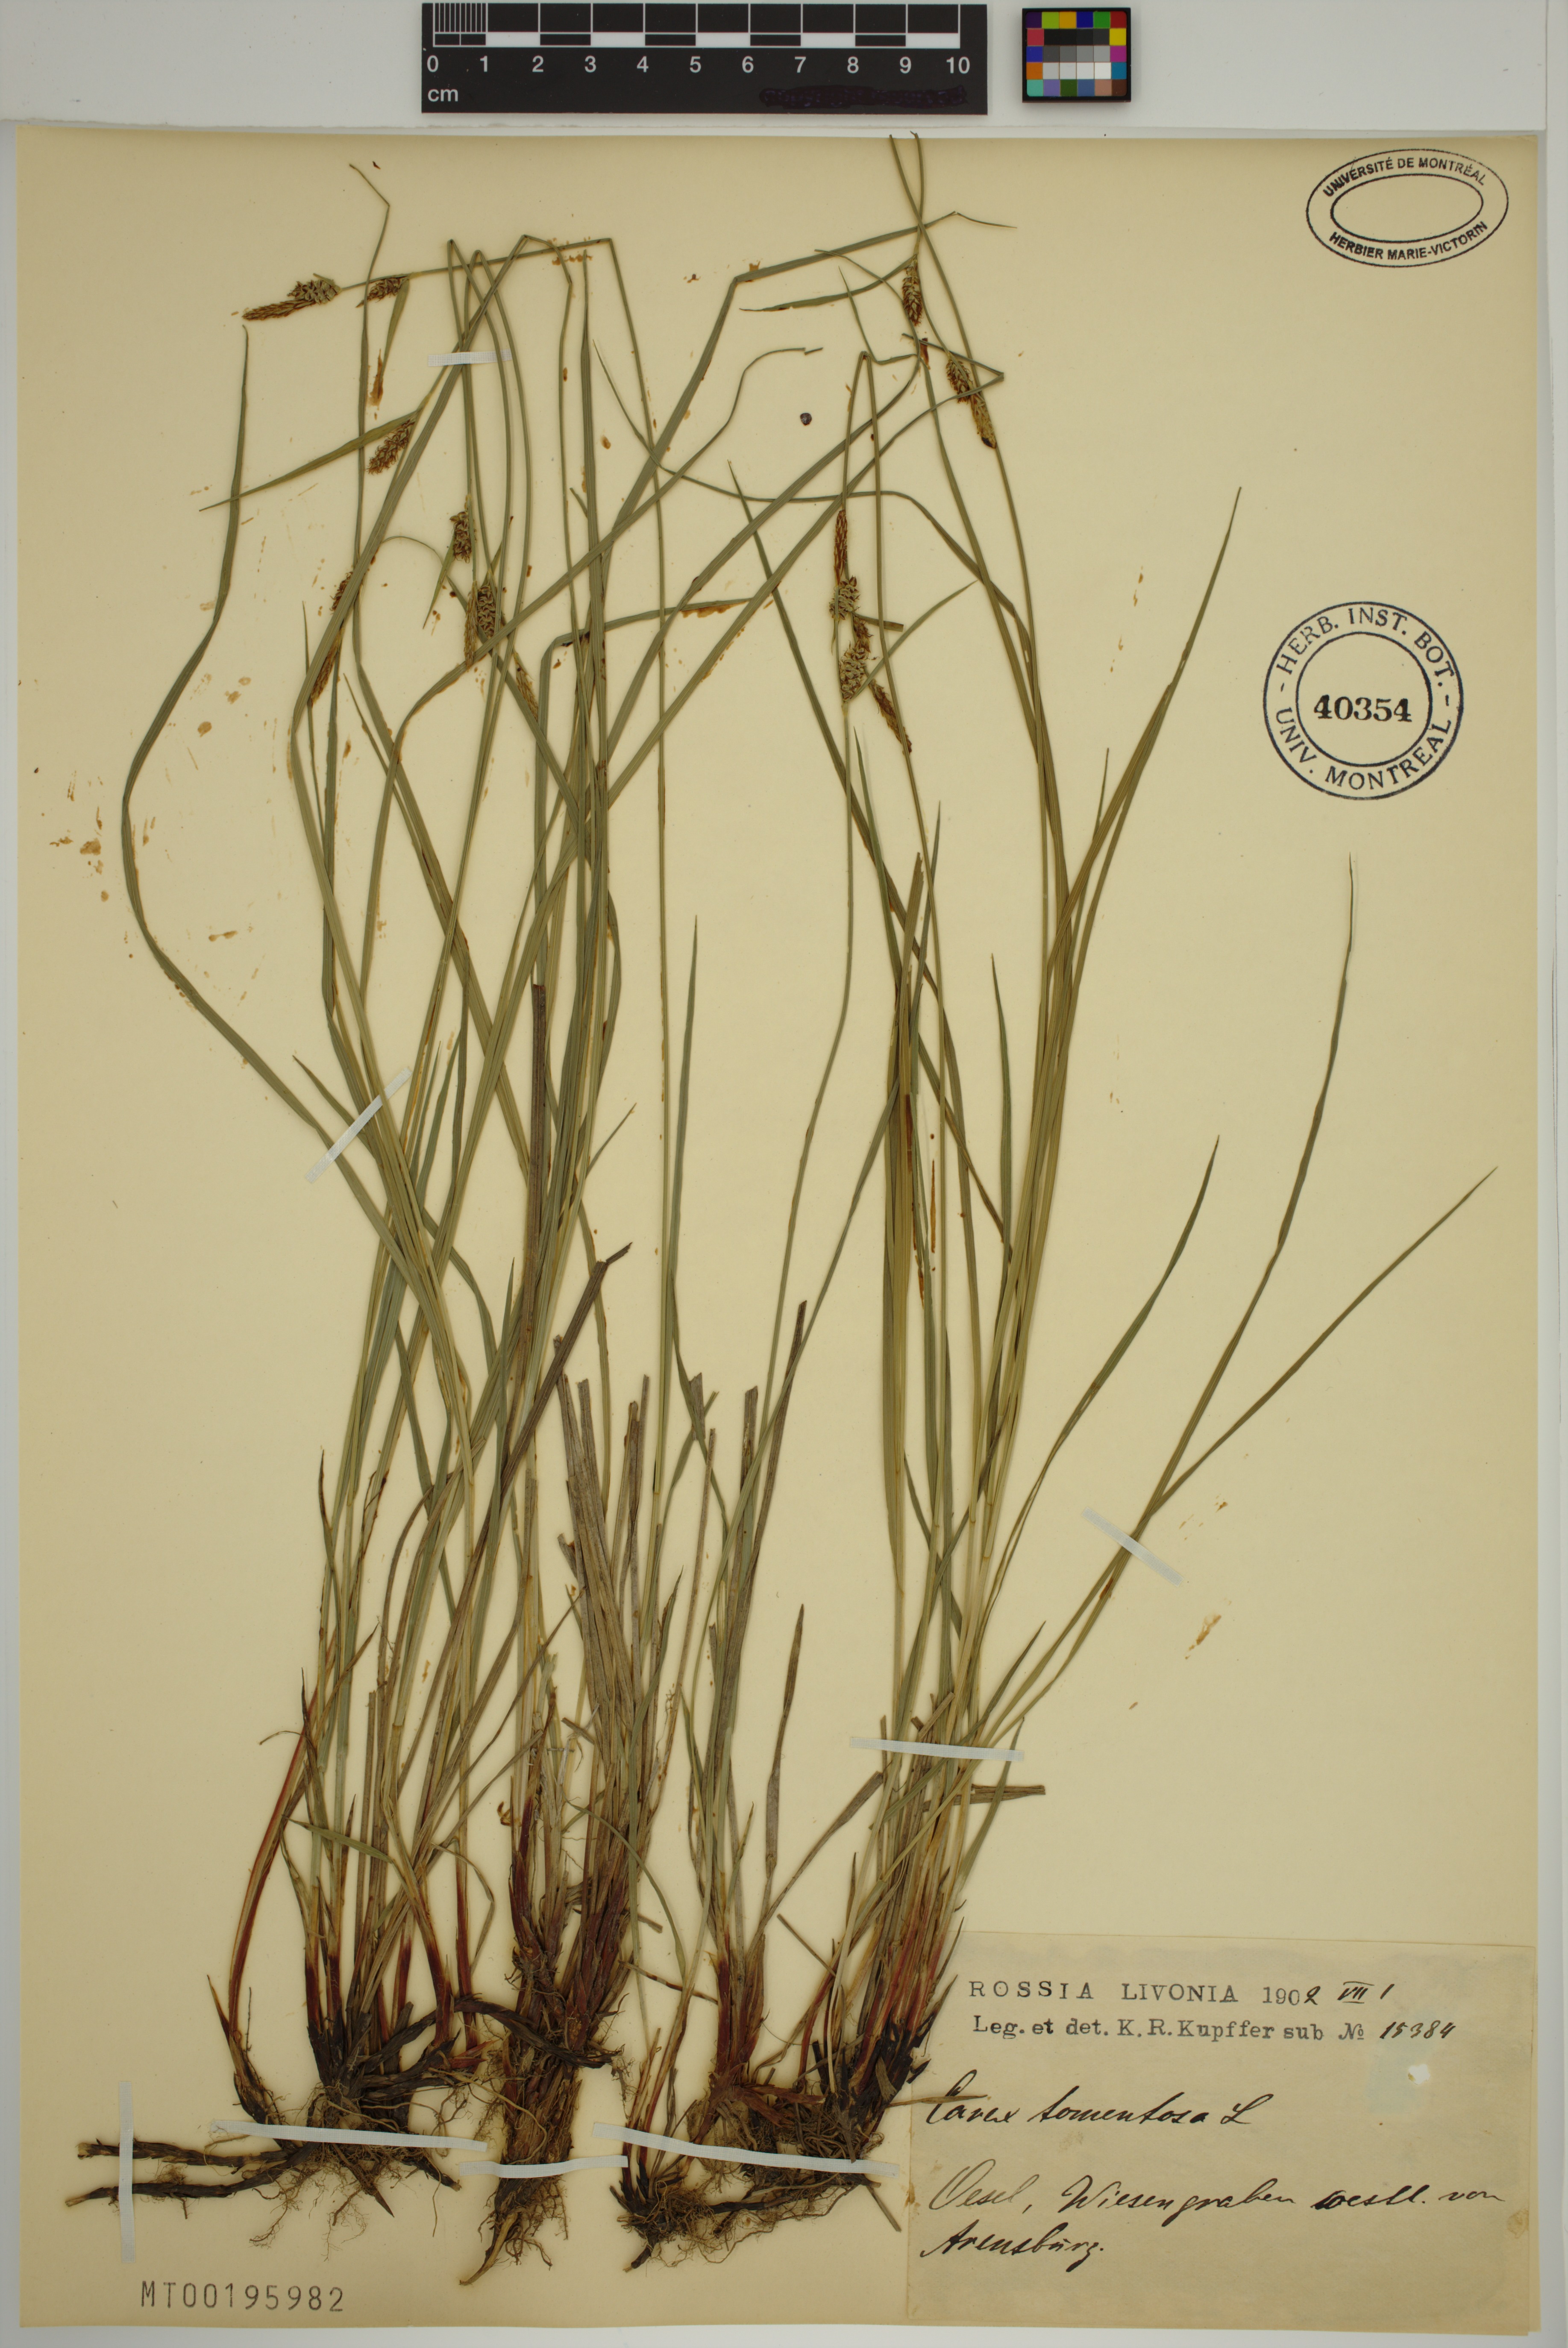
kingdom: Plantae
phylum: Tracheophyta
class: Liliopsida
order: Poales
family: Cyperaceae
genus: Carex
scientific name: Carex tomentosa
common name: Downy-fruited sedge
